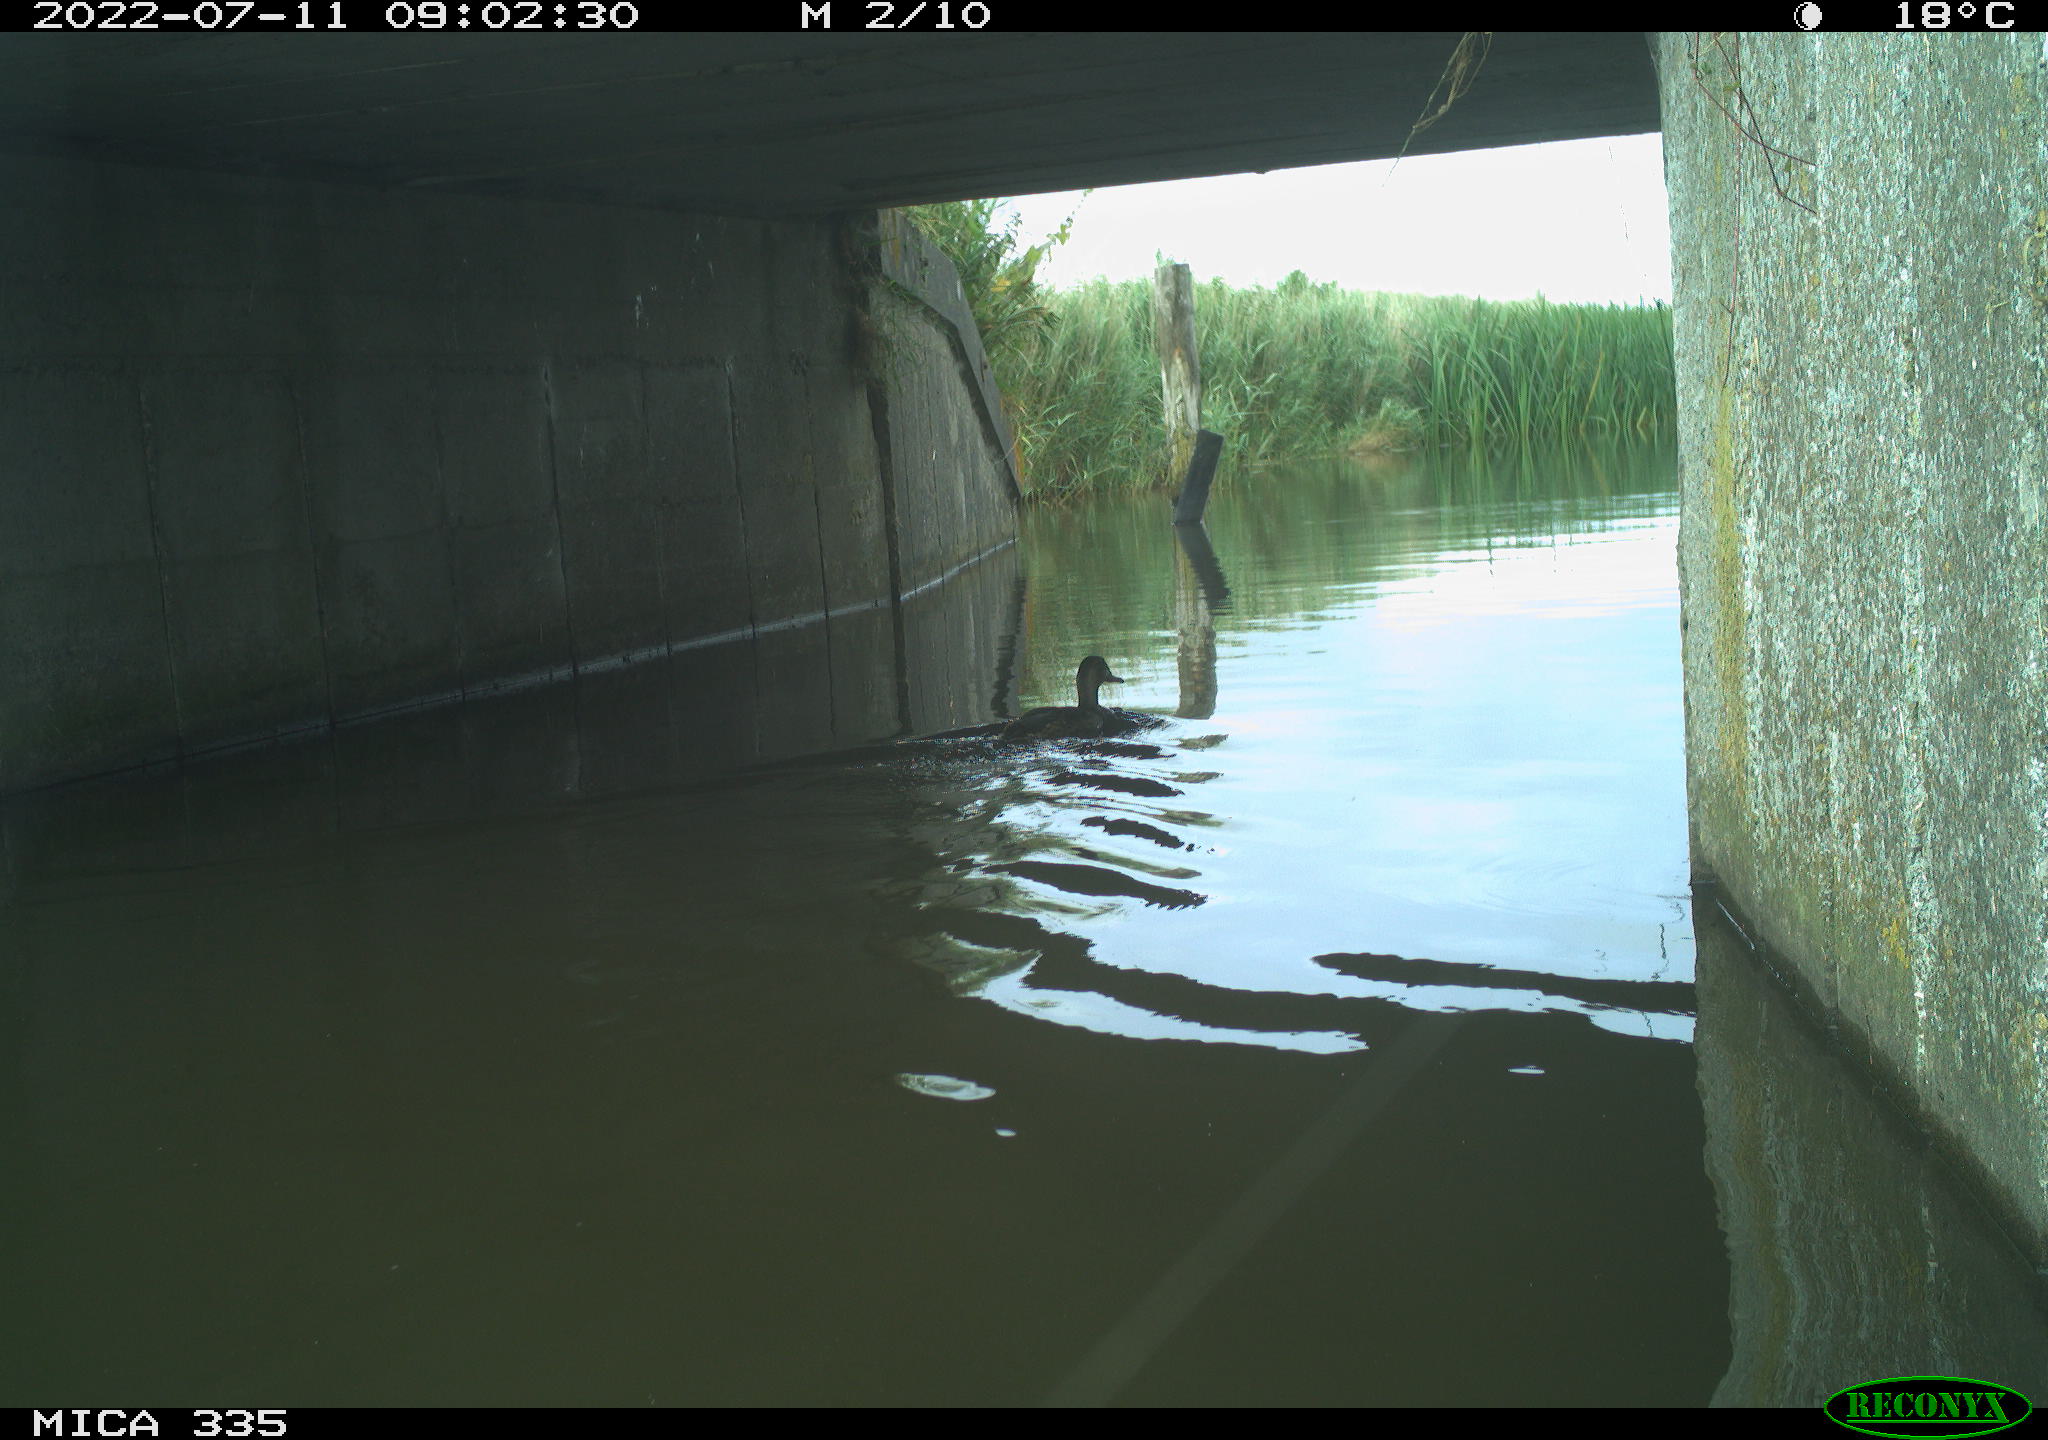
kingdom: Animalia
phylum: Chordata
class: Aves
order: Anseriformes
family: Anatidae
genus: Anas
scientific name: Anas platyrhynchos
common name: Mallard
